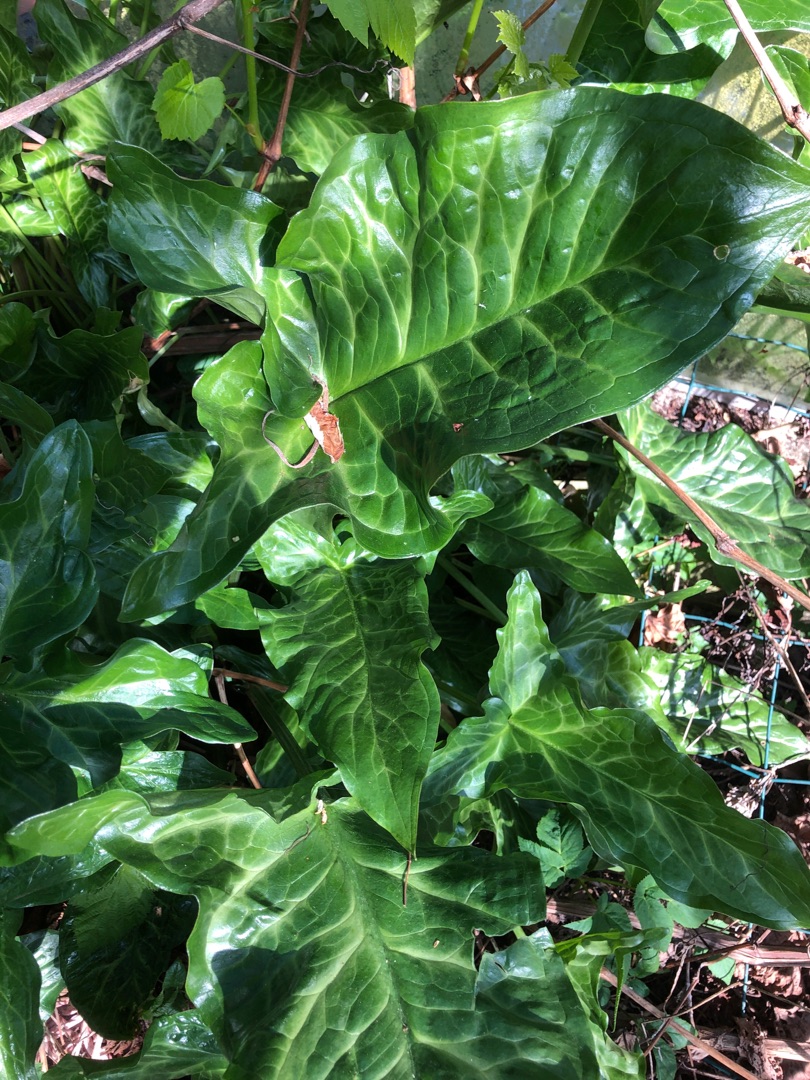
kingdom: Plantae
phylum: Tracheophyta
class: Liliopsida
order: Alismatales
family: Araceae
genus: Arum
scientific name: Arum italicum
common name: Italiensk arum
